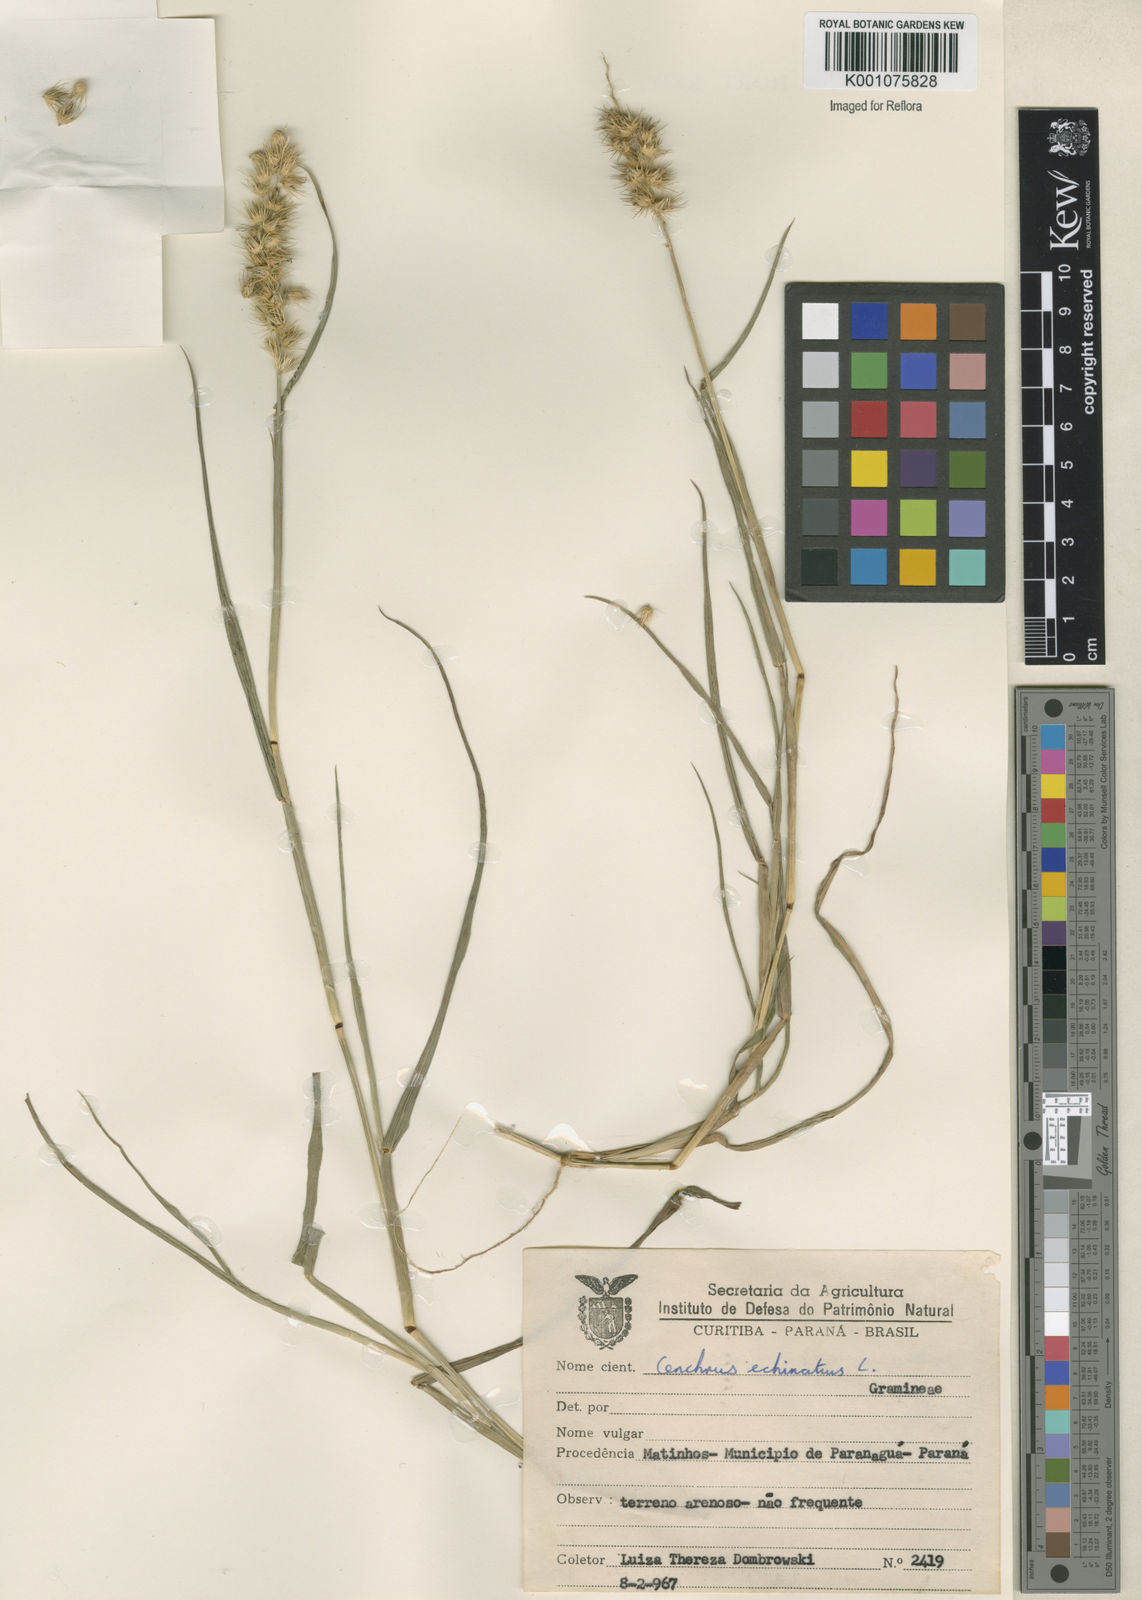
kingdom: Plantae
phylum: Tracheophyta
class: Liliopsida
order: Poales
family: Poaceae
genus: Cenchrus
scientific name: Cenchrus echinatus
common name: Southern sandbur
